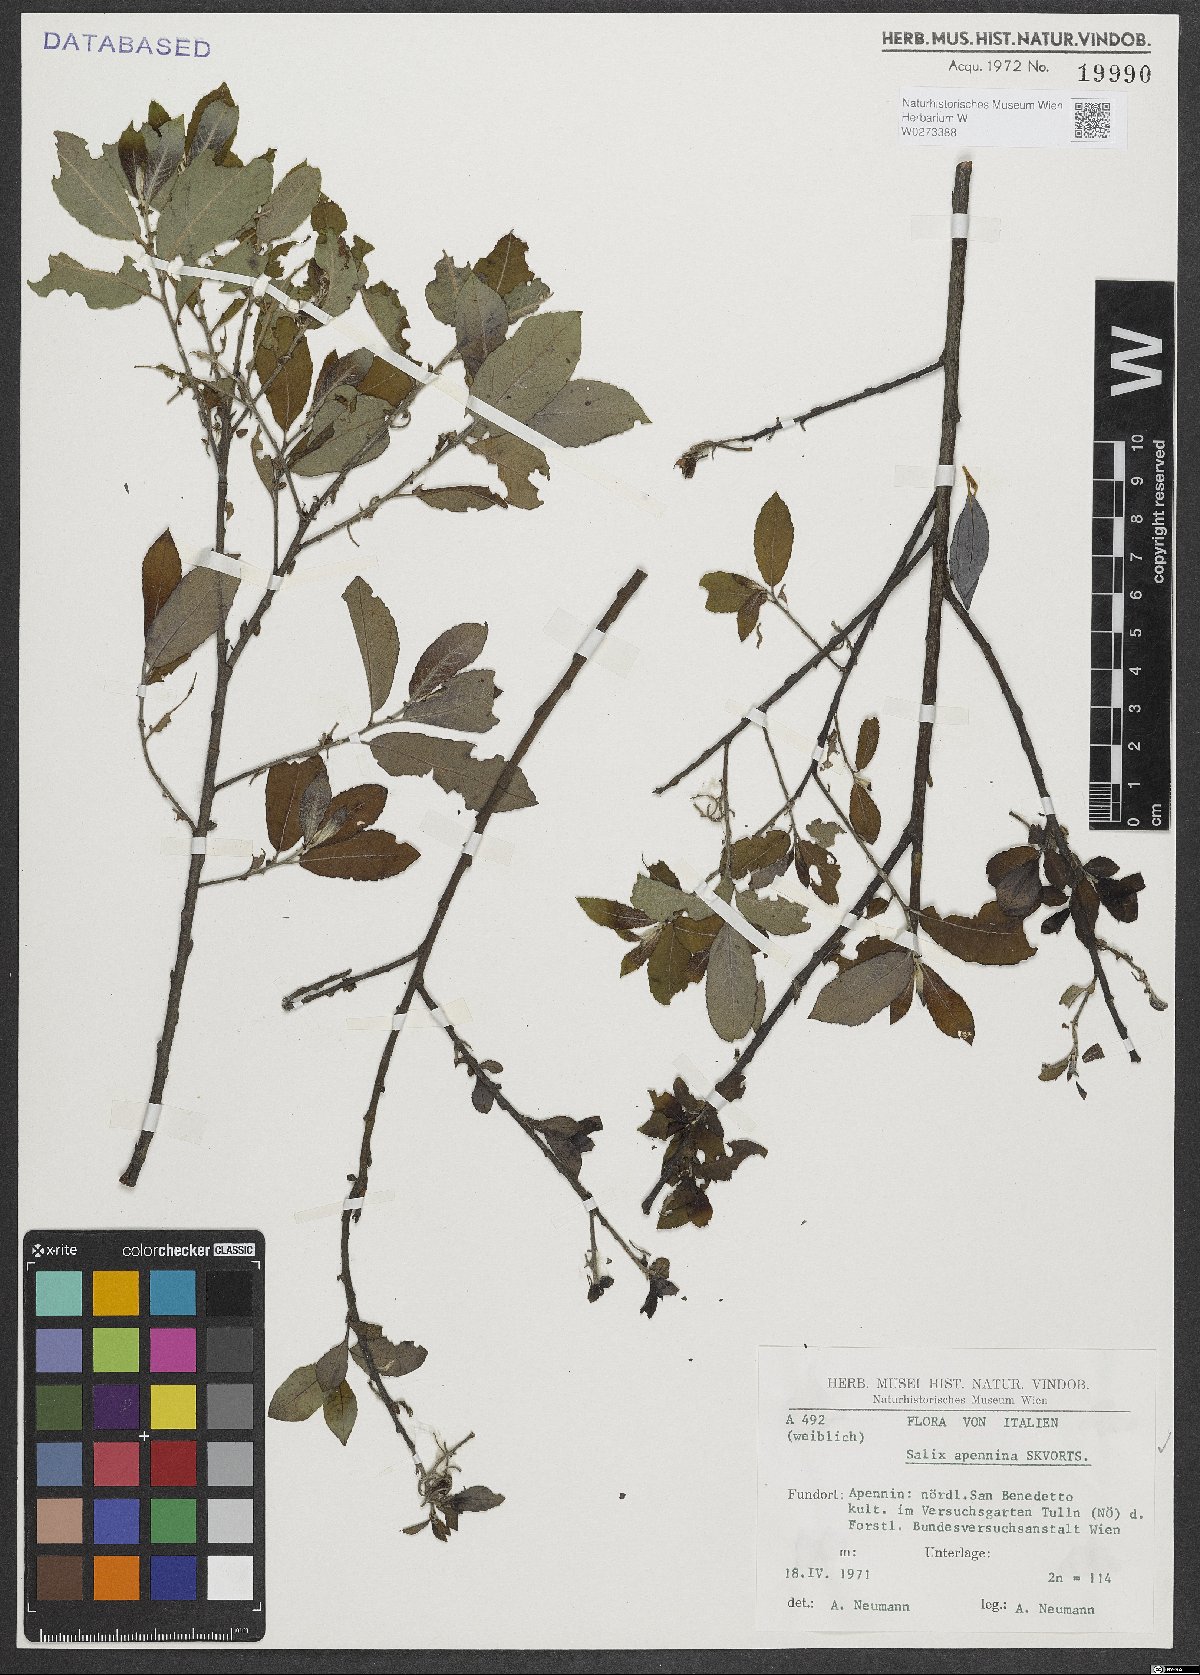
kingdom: Plantae
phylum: Tracheophyta
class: Magnoliopsida
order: Malpighiales
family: Salicaceae
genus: Salix
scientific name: Salix apennina
